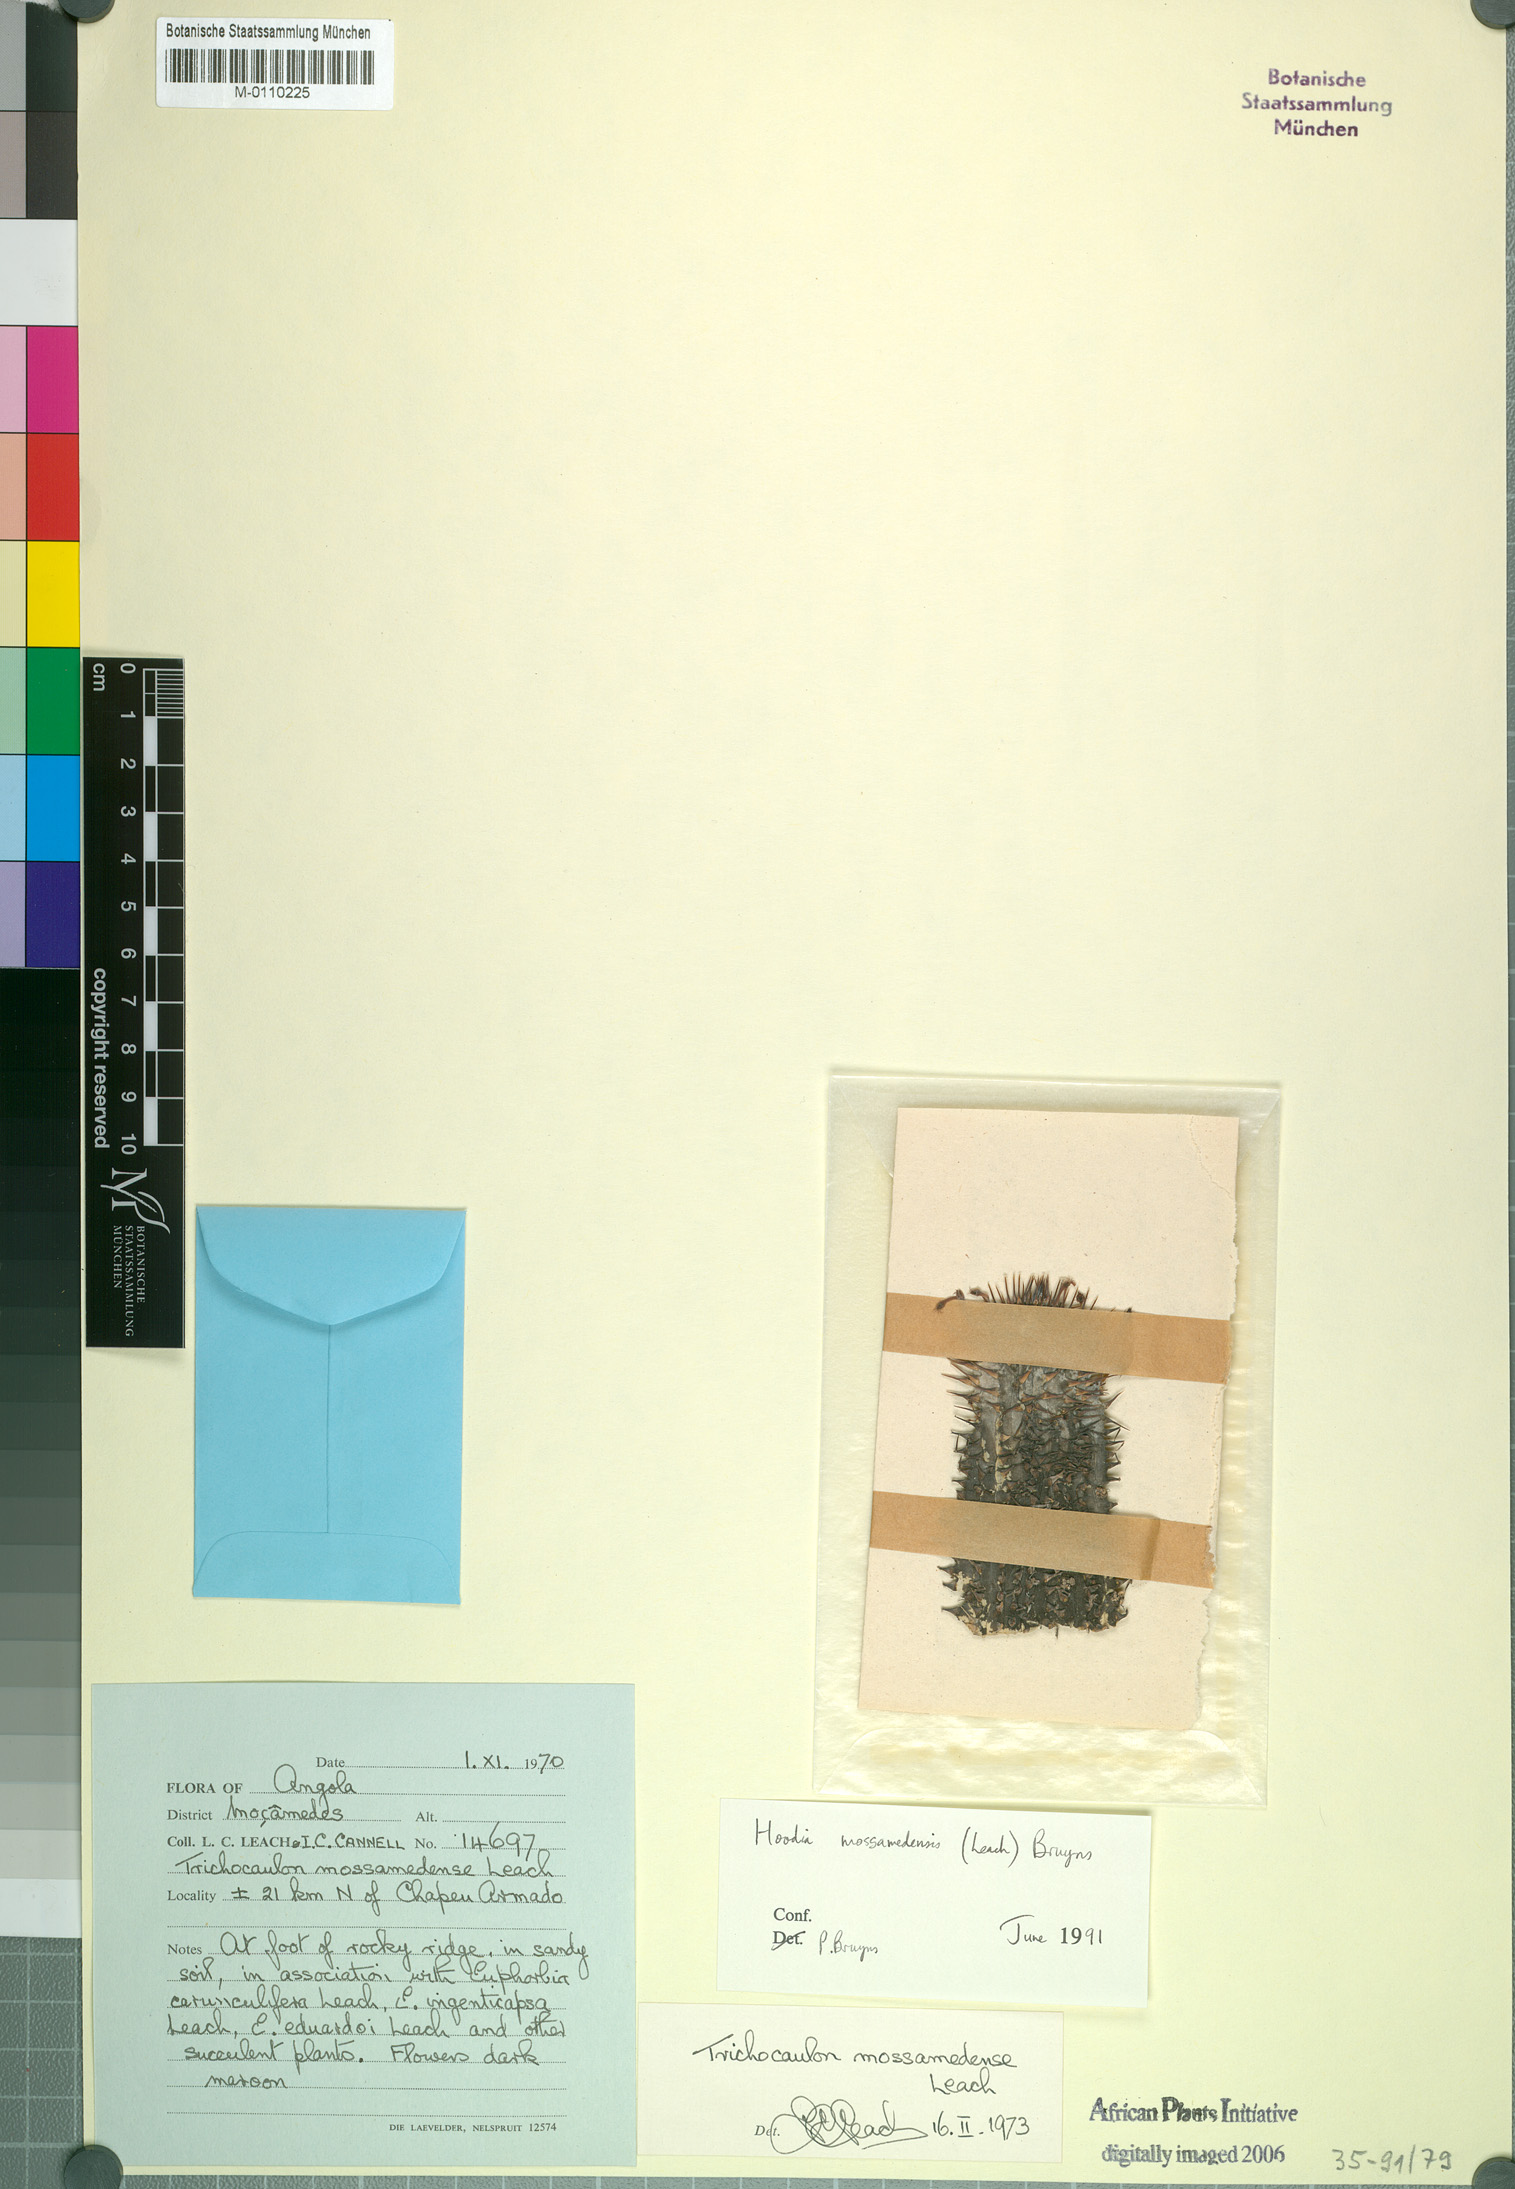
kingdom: Plantae
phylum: Tracheophyta
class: Magnoliopsida
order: Gentianales
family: Apocynaceae
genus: Ceropegia
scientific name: Ceropegia mossamedensis
